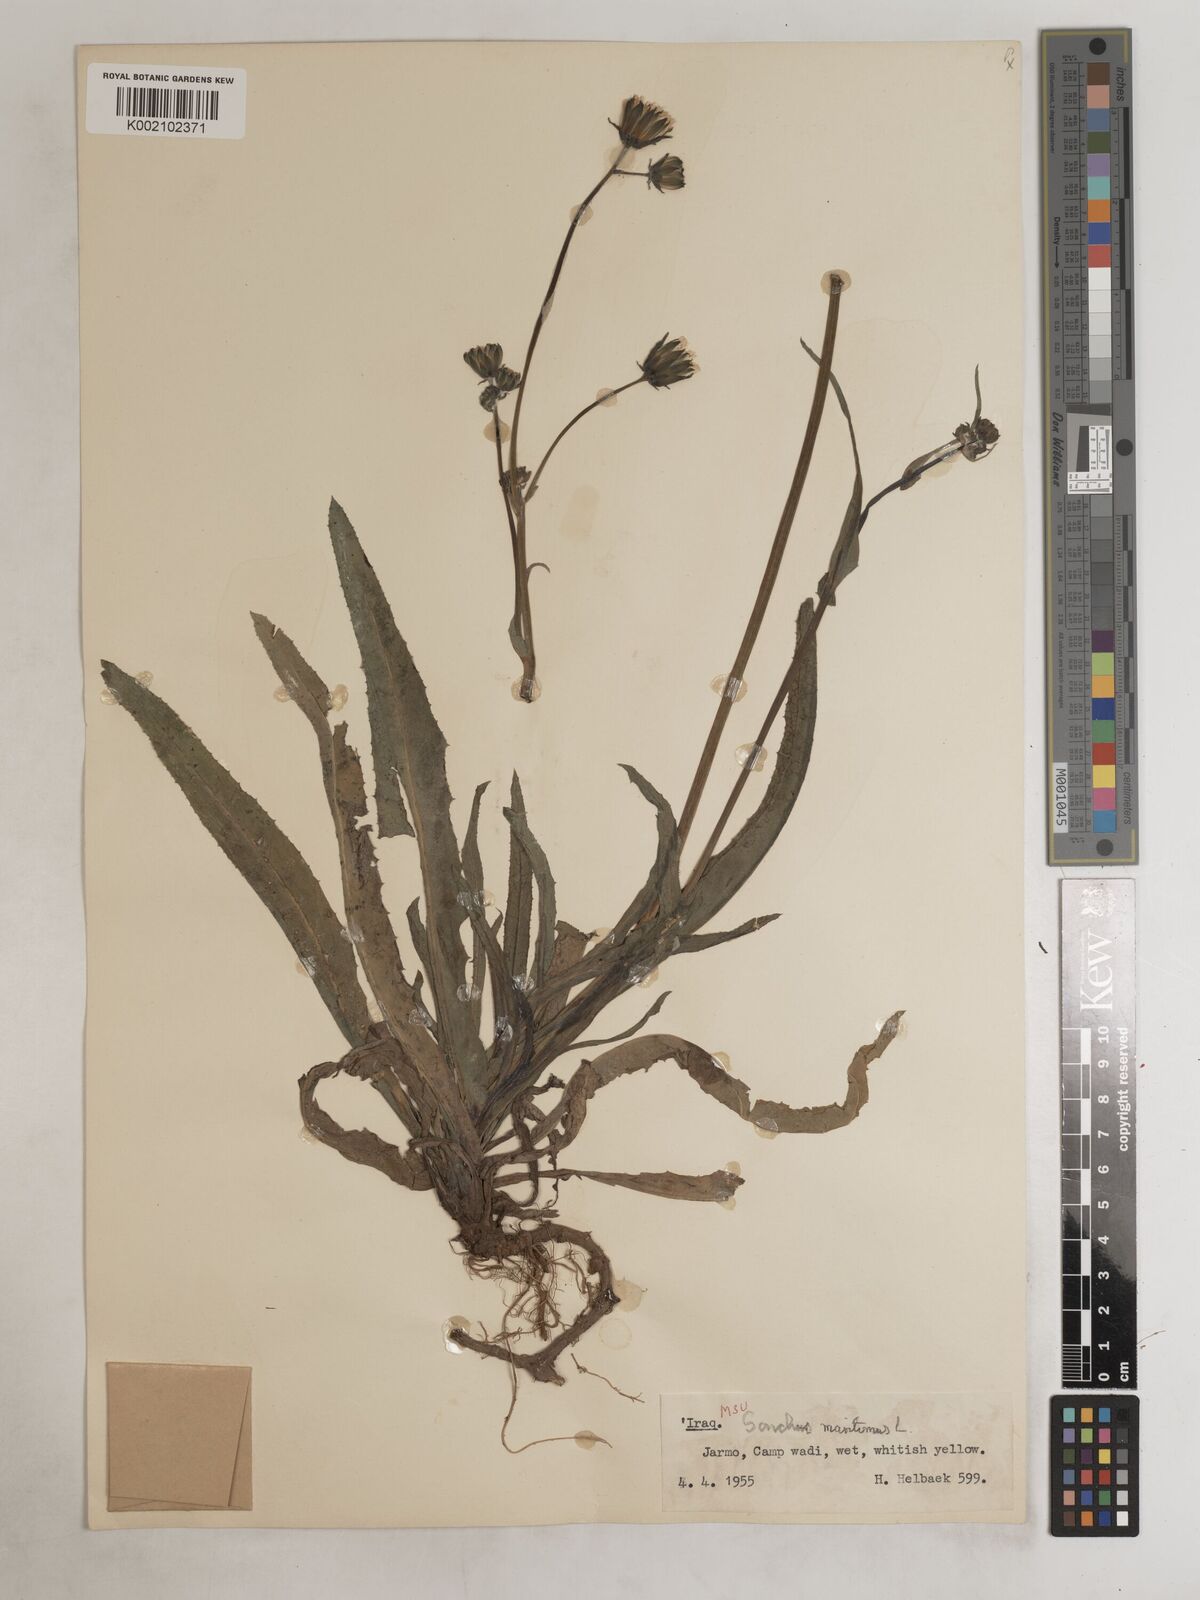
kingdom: Plantae
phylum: Tracheophyta
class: Magnoliopsida
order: Asterales
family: Asteraceae
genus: Sonchus
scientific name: Sonchus maritimus
